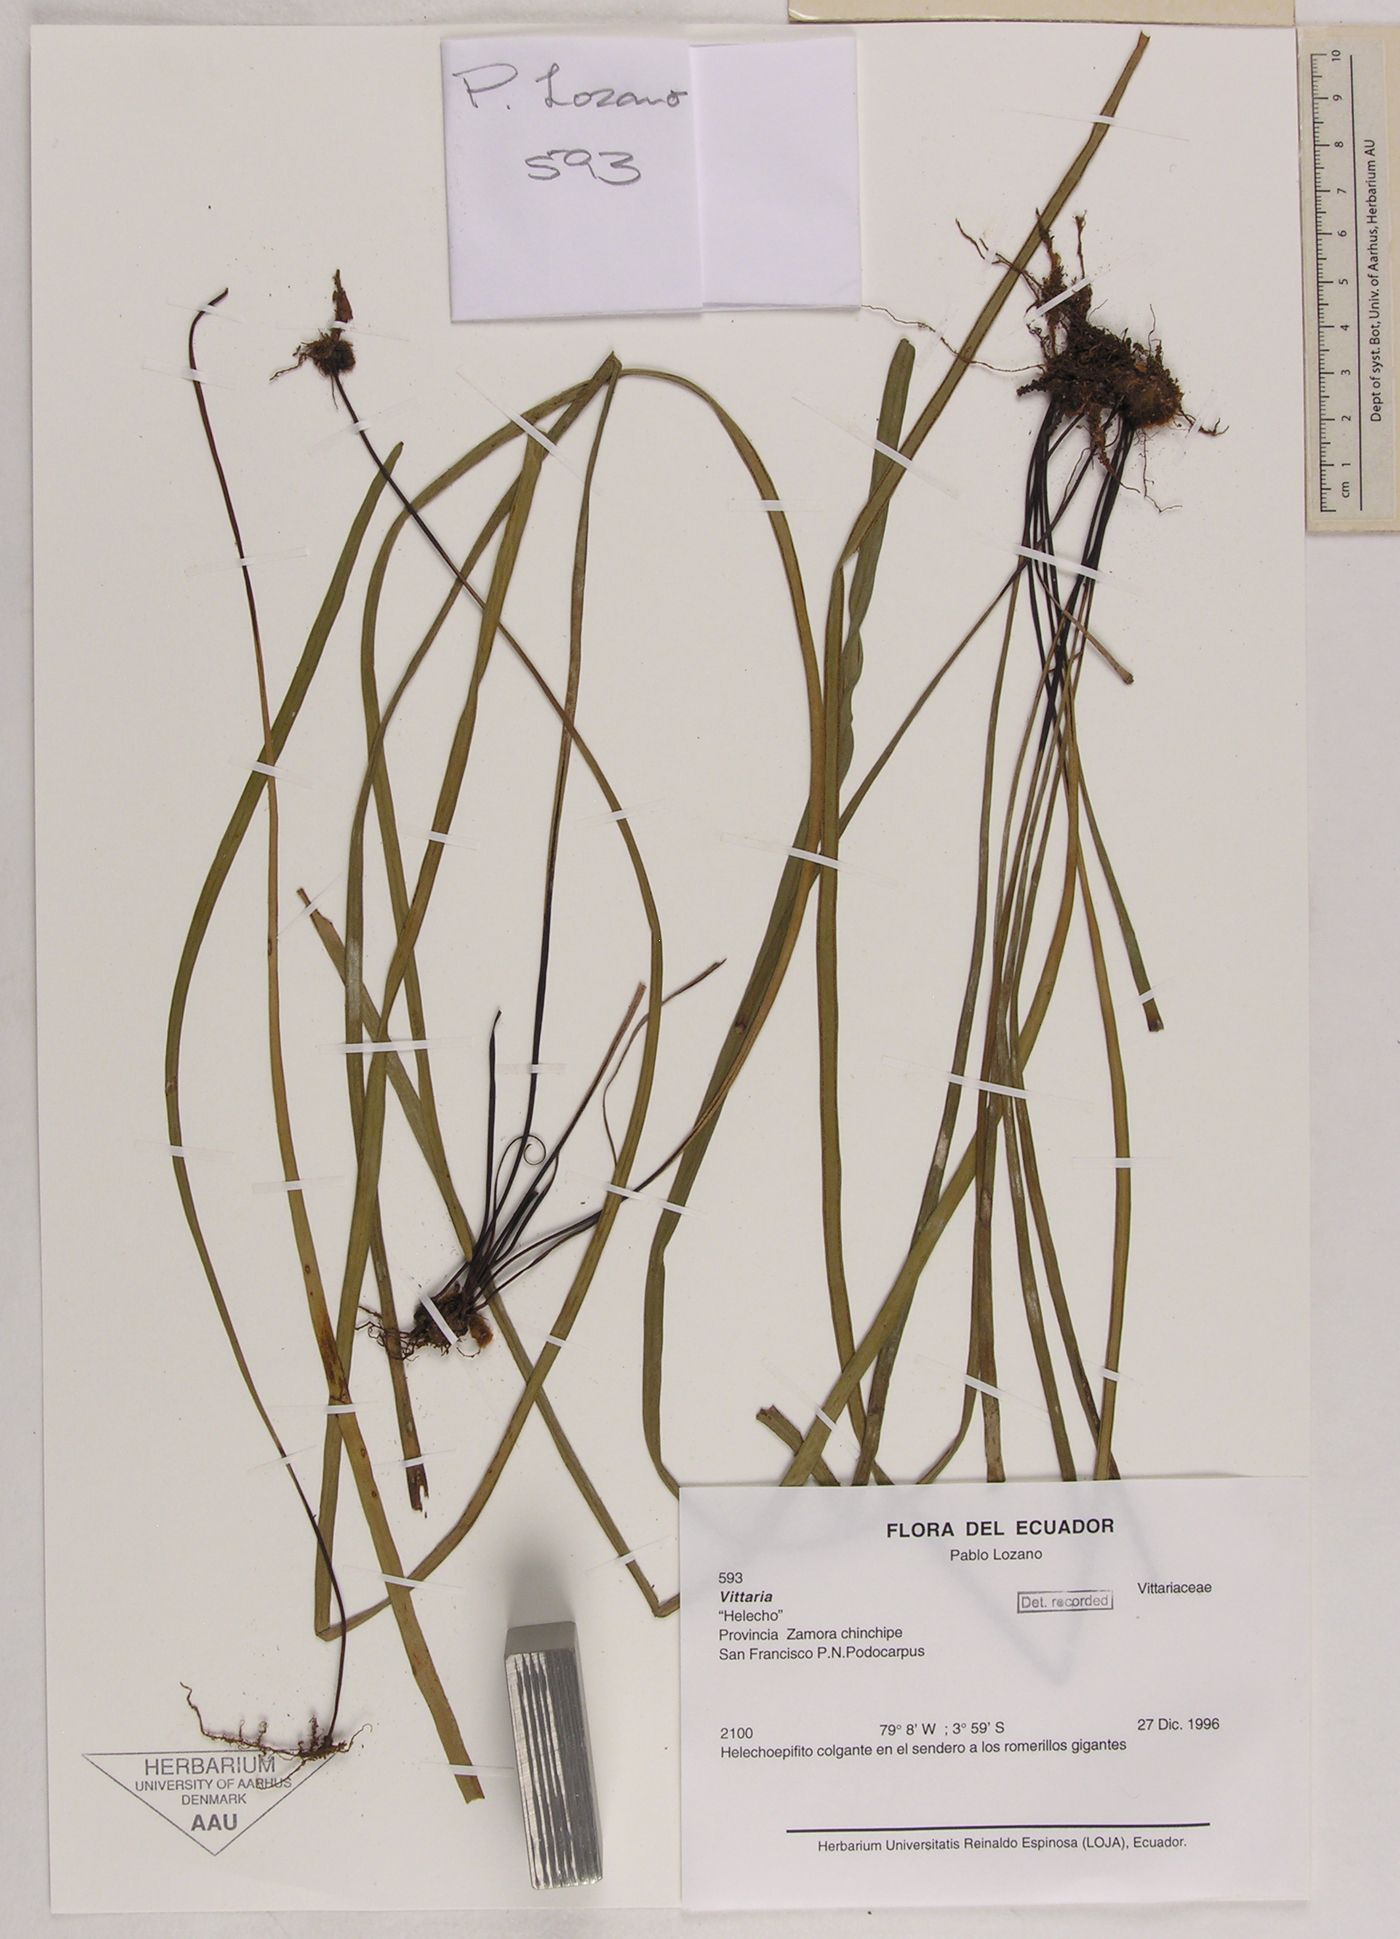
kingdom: Plantae
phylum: Tracheophyta
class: Polypodiopsida
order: Polypodiales
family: Pteridaceae
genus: Vittaria
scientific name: Vittaria
